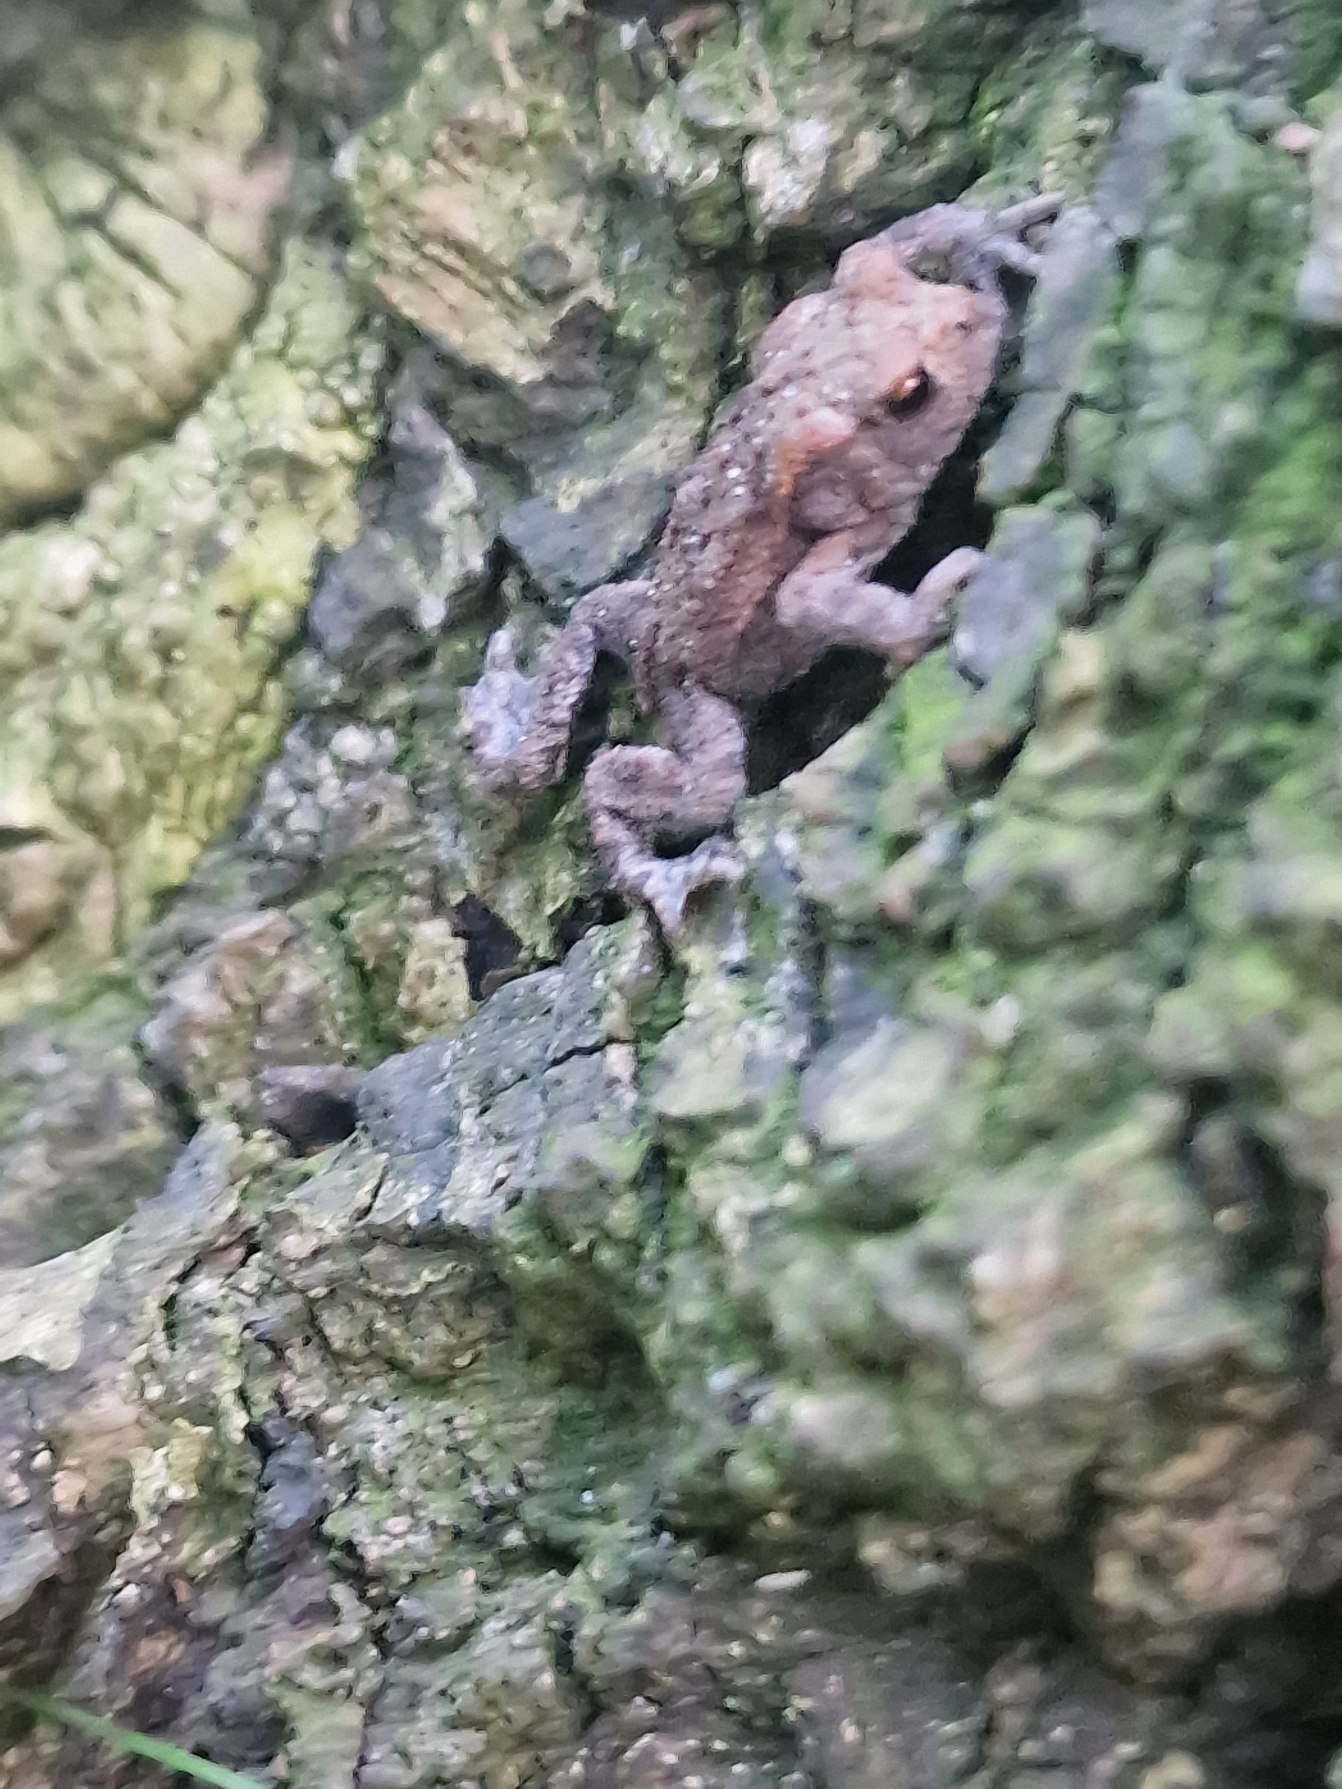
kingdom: Animalia
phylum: Chordata
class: Amphibia
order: Anura
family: Bufonidae
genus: Bufo
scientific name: Bufo bufo
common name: Skrubtudse
